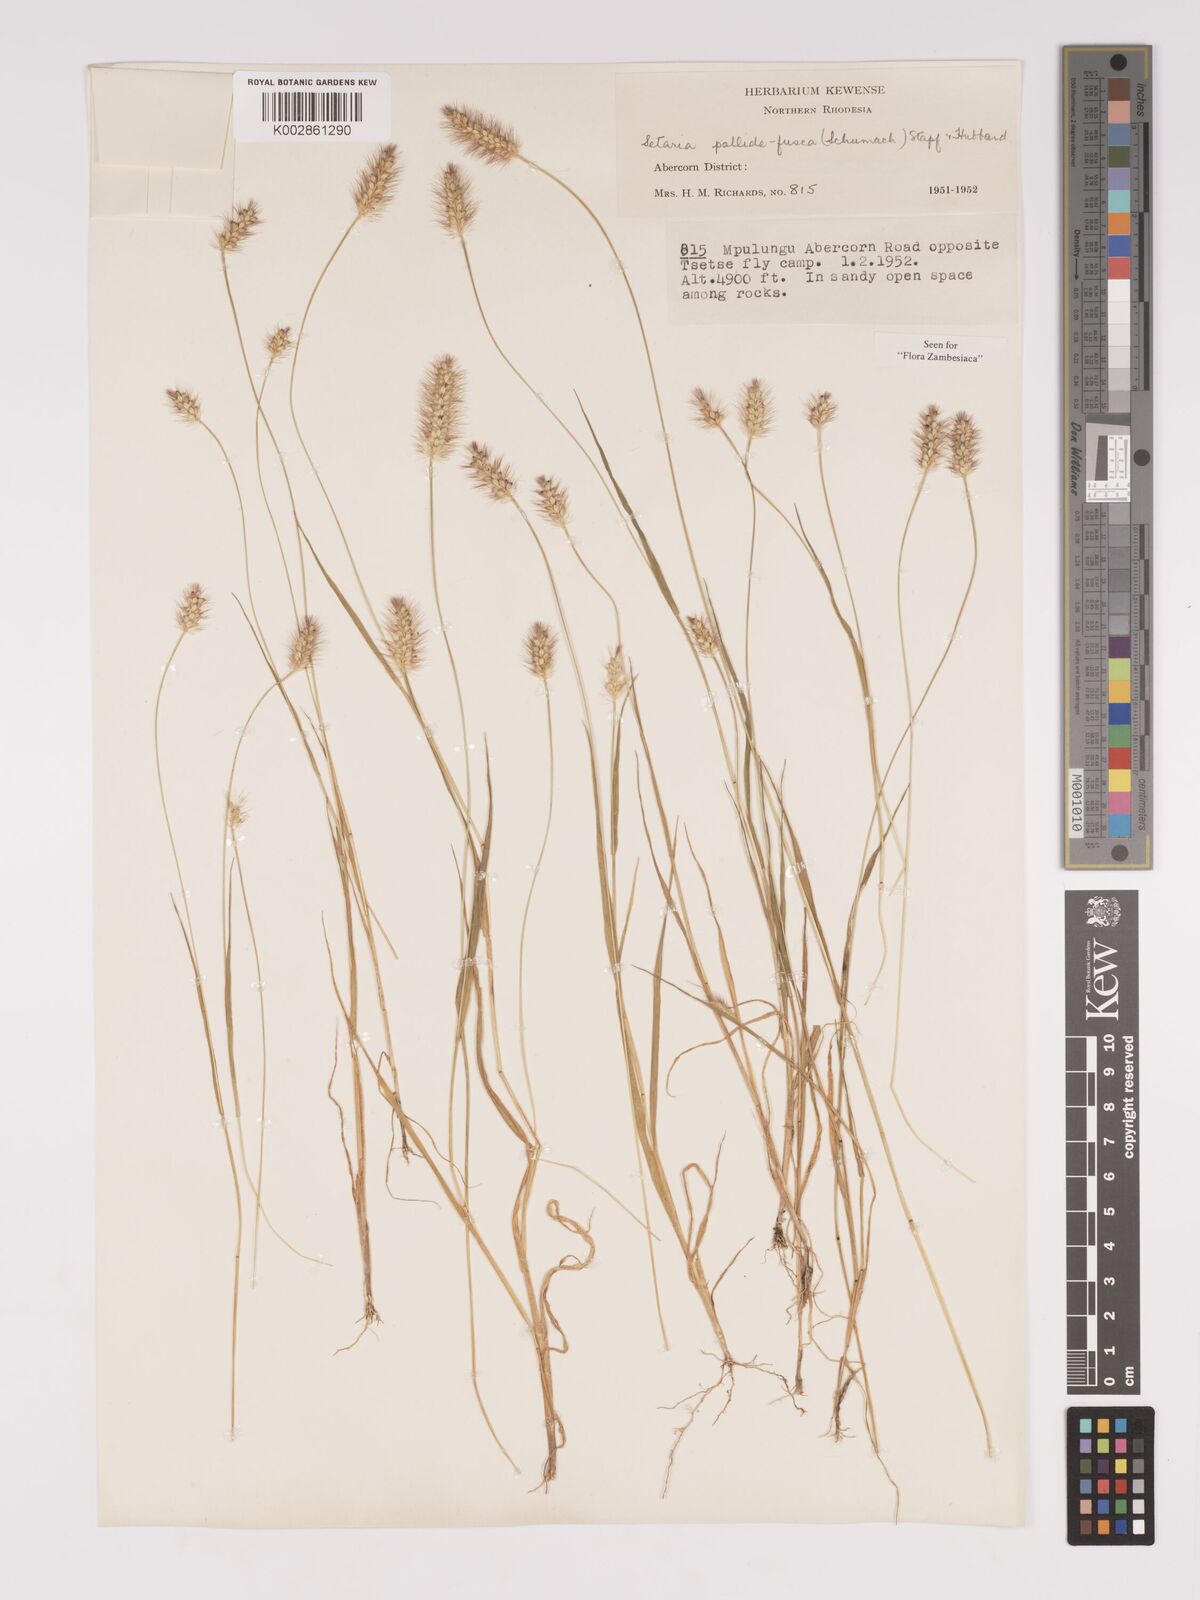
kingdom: Plantae
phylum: Tracheophyta
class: Liliopsida
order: Poales
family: Poaceae
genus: Setaria
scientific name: Setaria pumila
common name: Yellow bristle-grass
